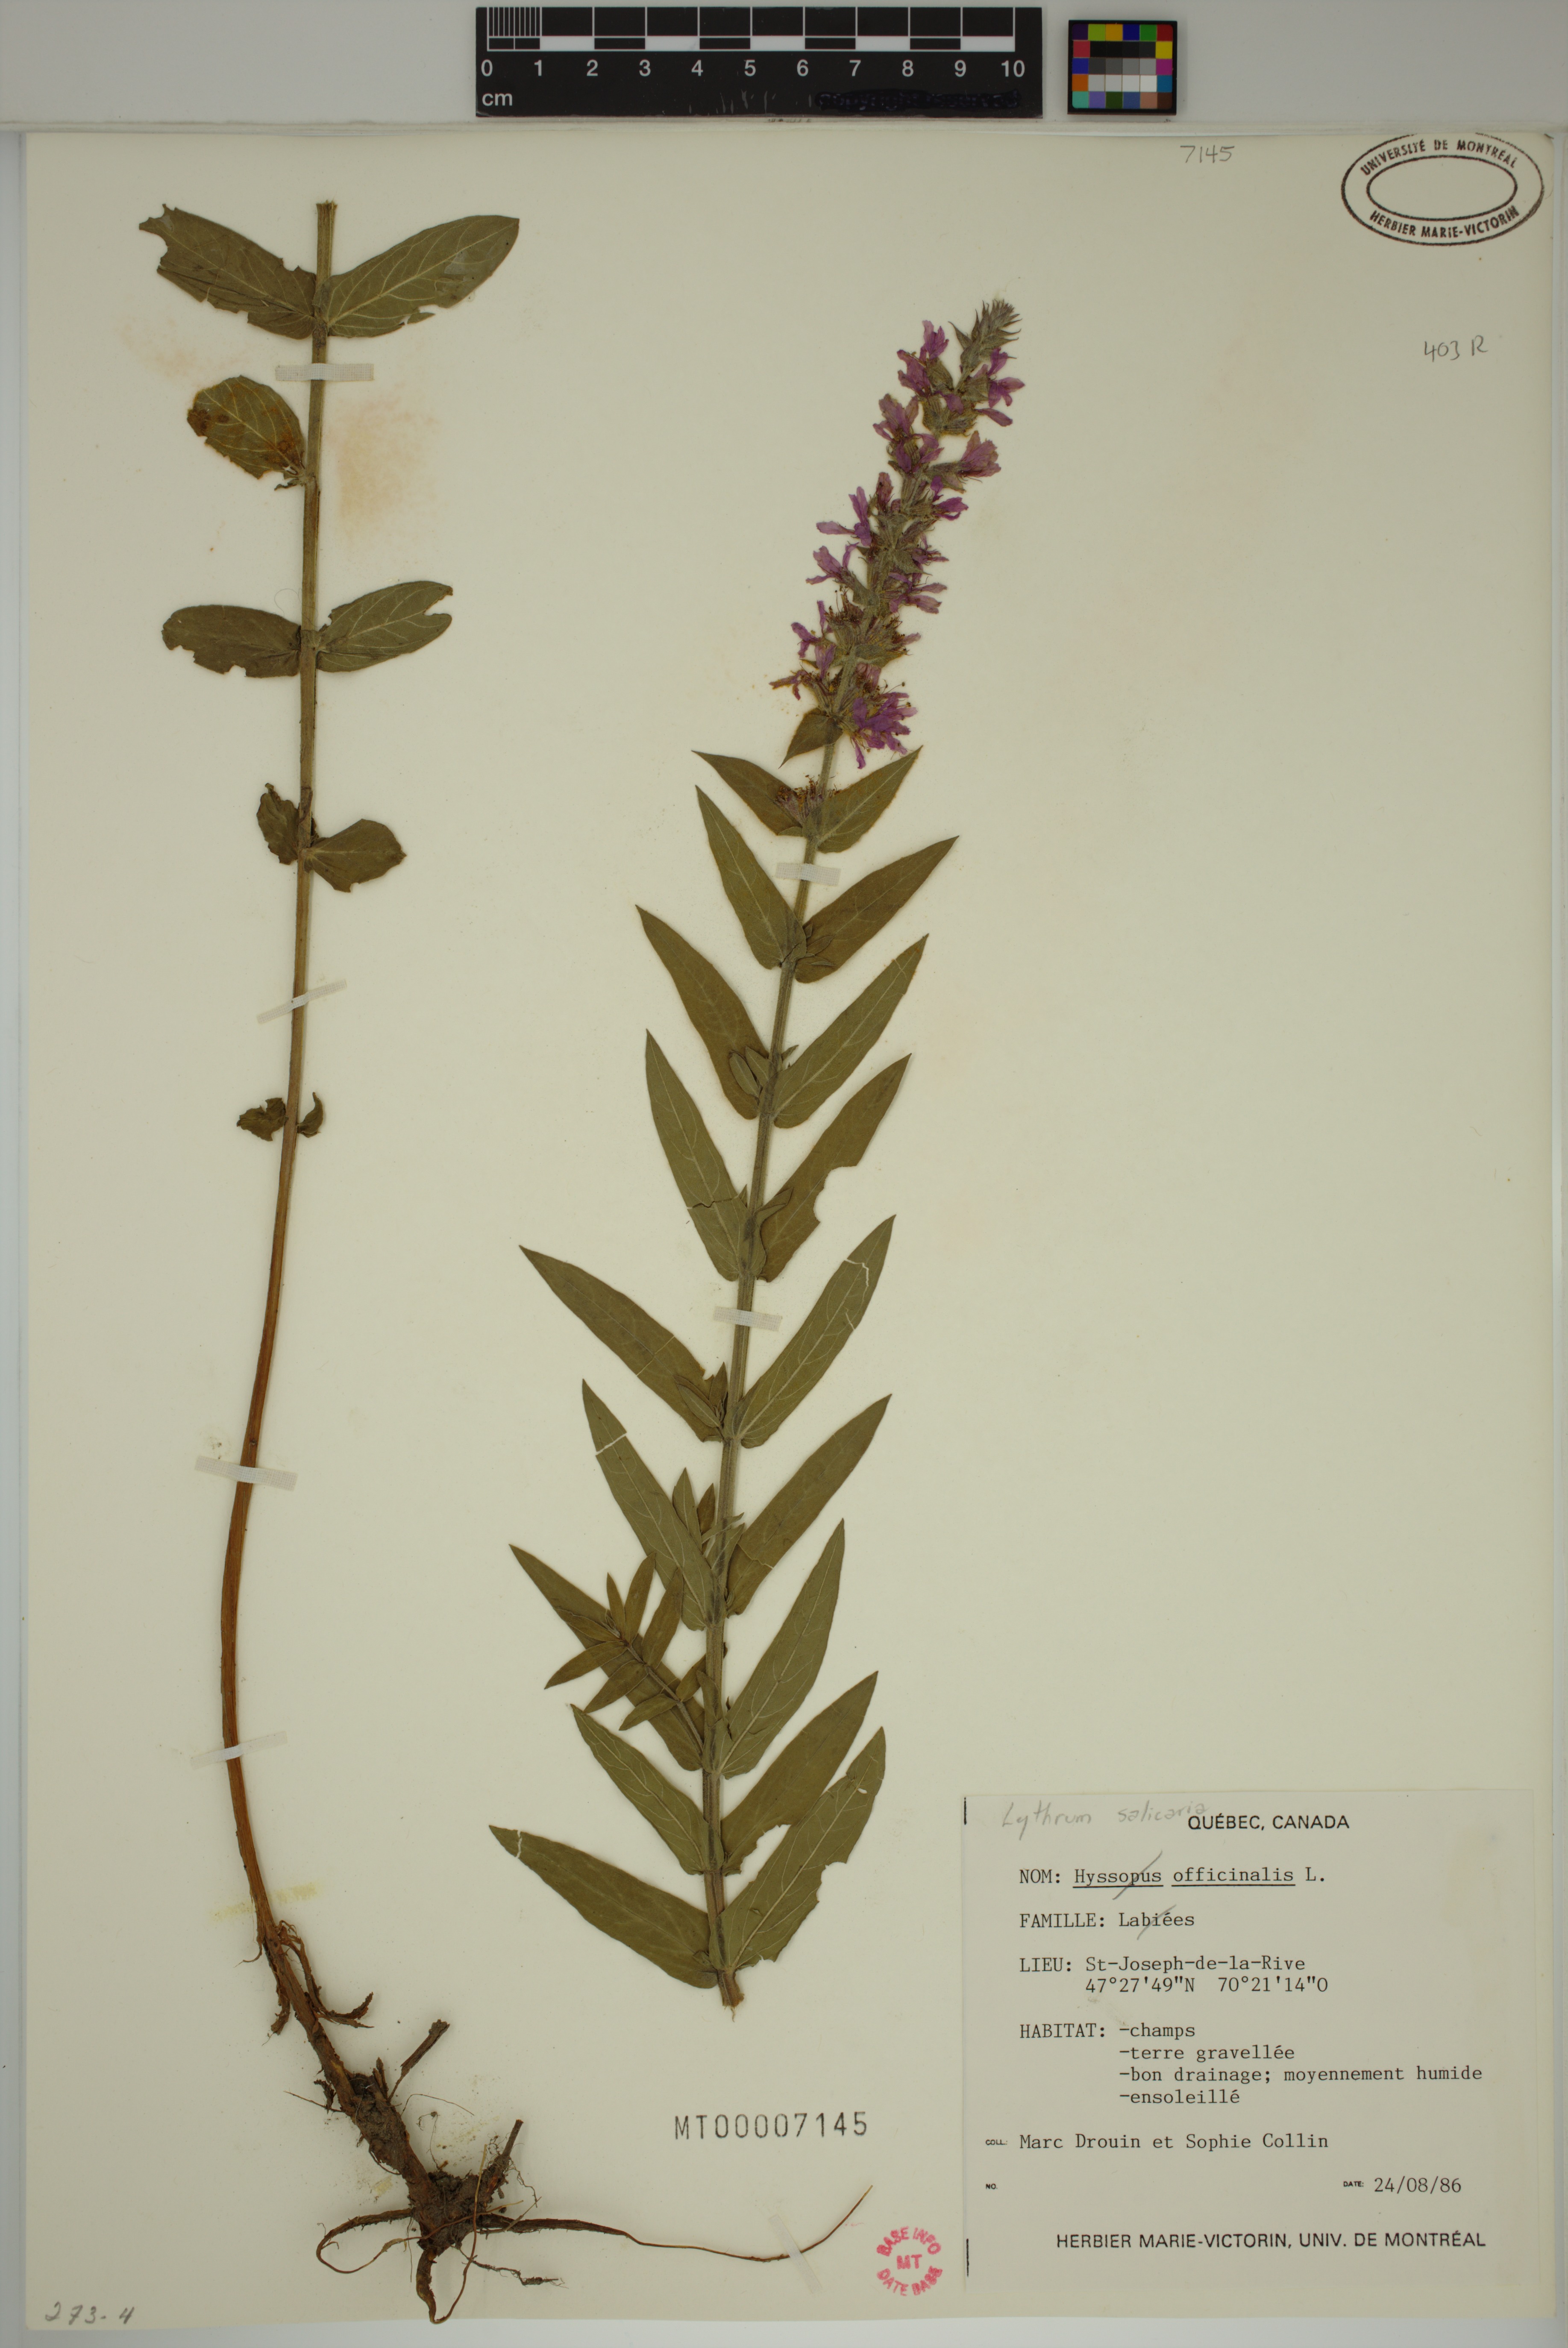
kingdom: Plantae
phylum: Tracheophyta
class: Magnoliopsida
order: Myrtales
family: Lythraceae
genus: Lythrum
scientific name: Lythrum salicaria
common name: Purple loosestrife
